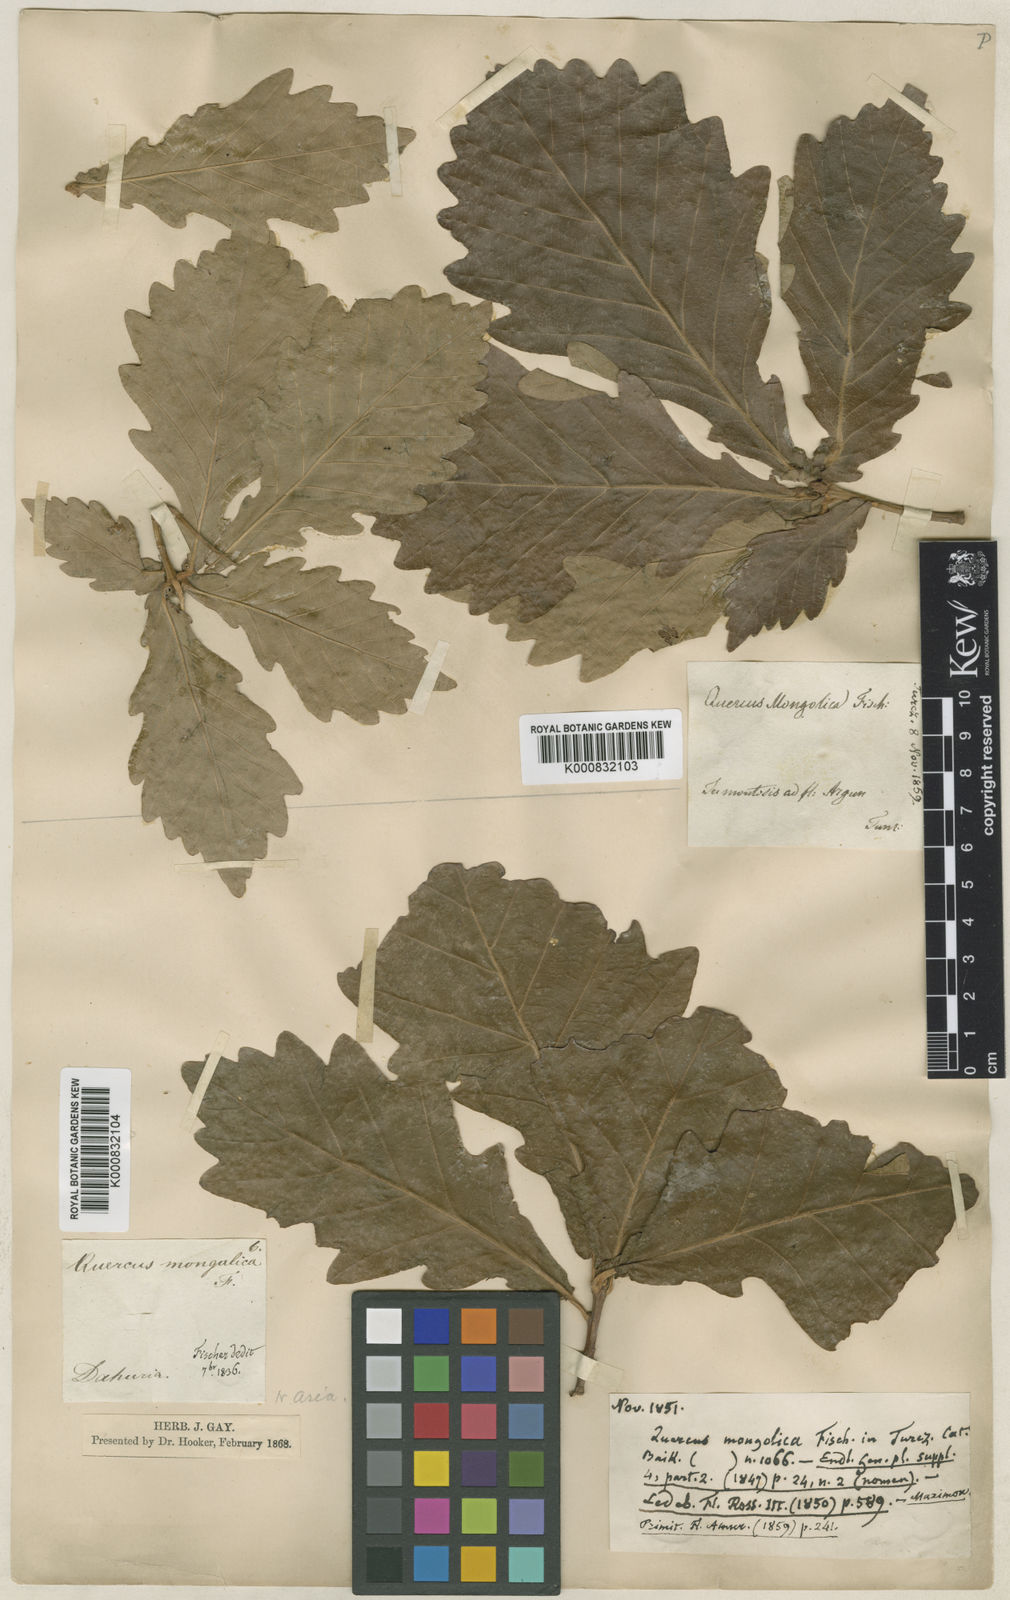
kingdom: Plantae
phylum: Tracheophyta
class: Magnoliopsida
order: Fagales
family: Fagaceae
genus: Quercus
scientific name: Quercus mongolica
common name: Mongolian oak
